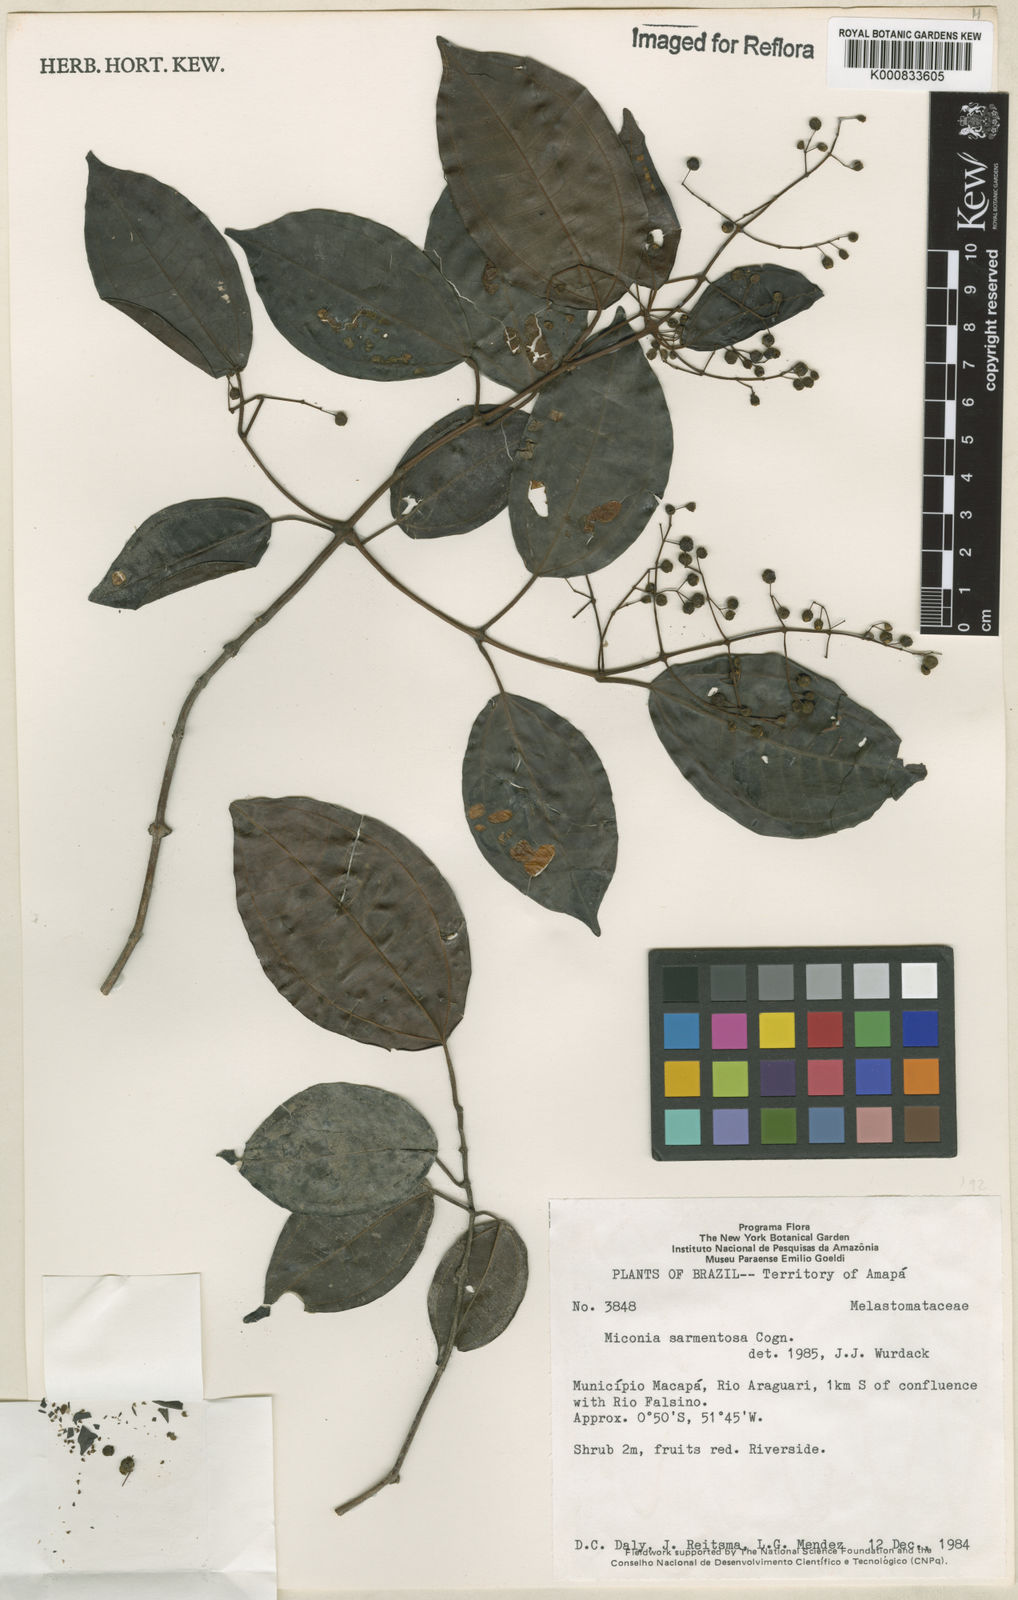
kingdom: Plantae
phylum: Tracheophyta
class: Magnoliopsida
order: Myrtales
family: Melastomataceae
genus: Miconia
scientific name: Miconia sarmentosa
